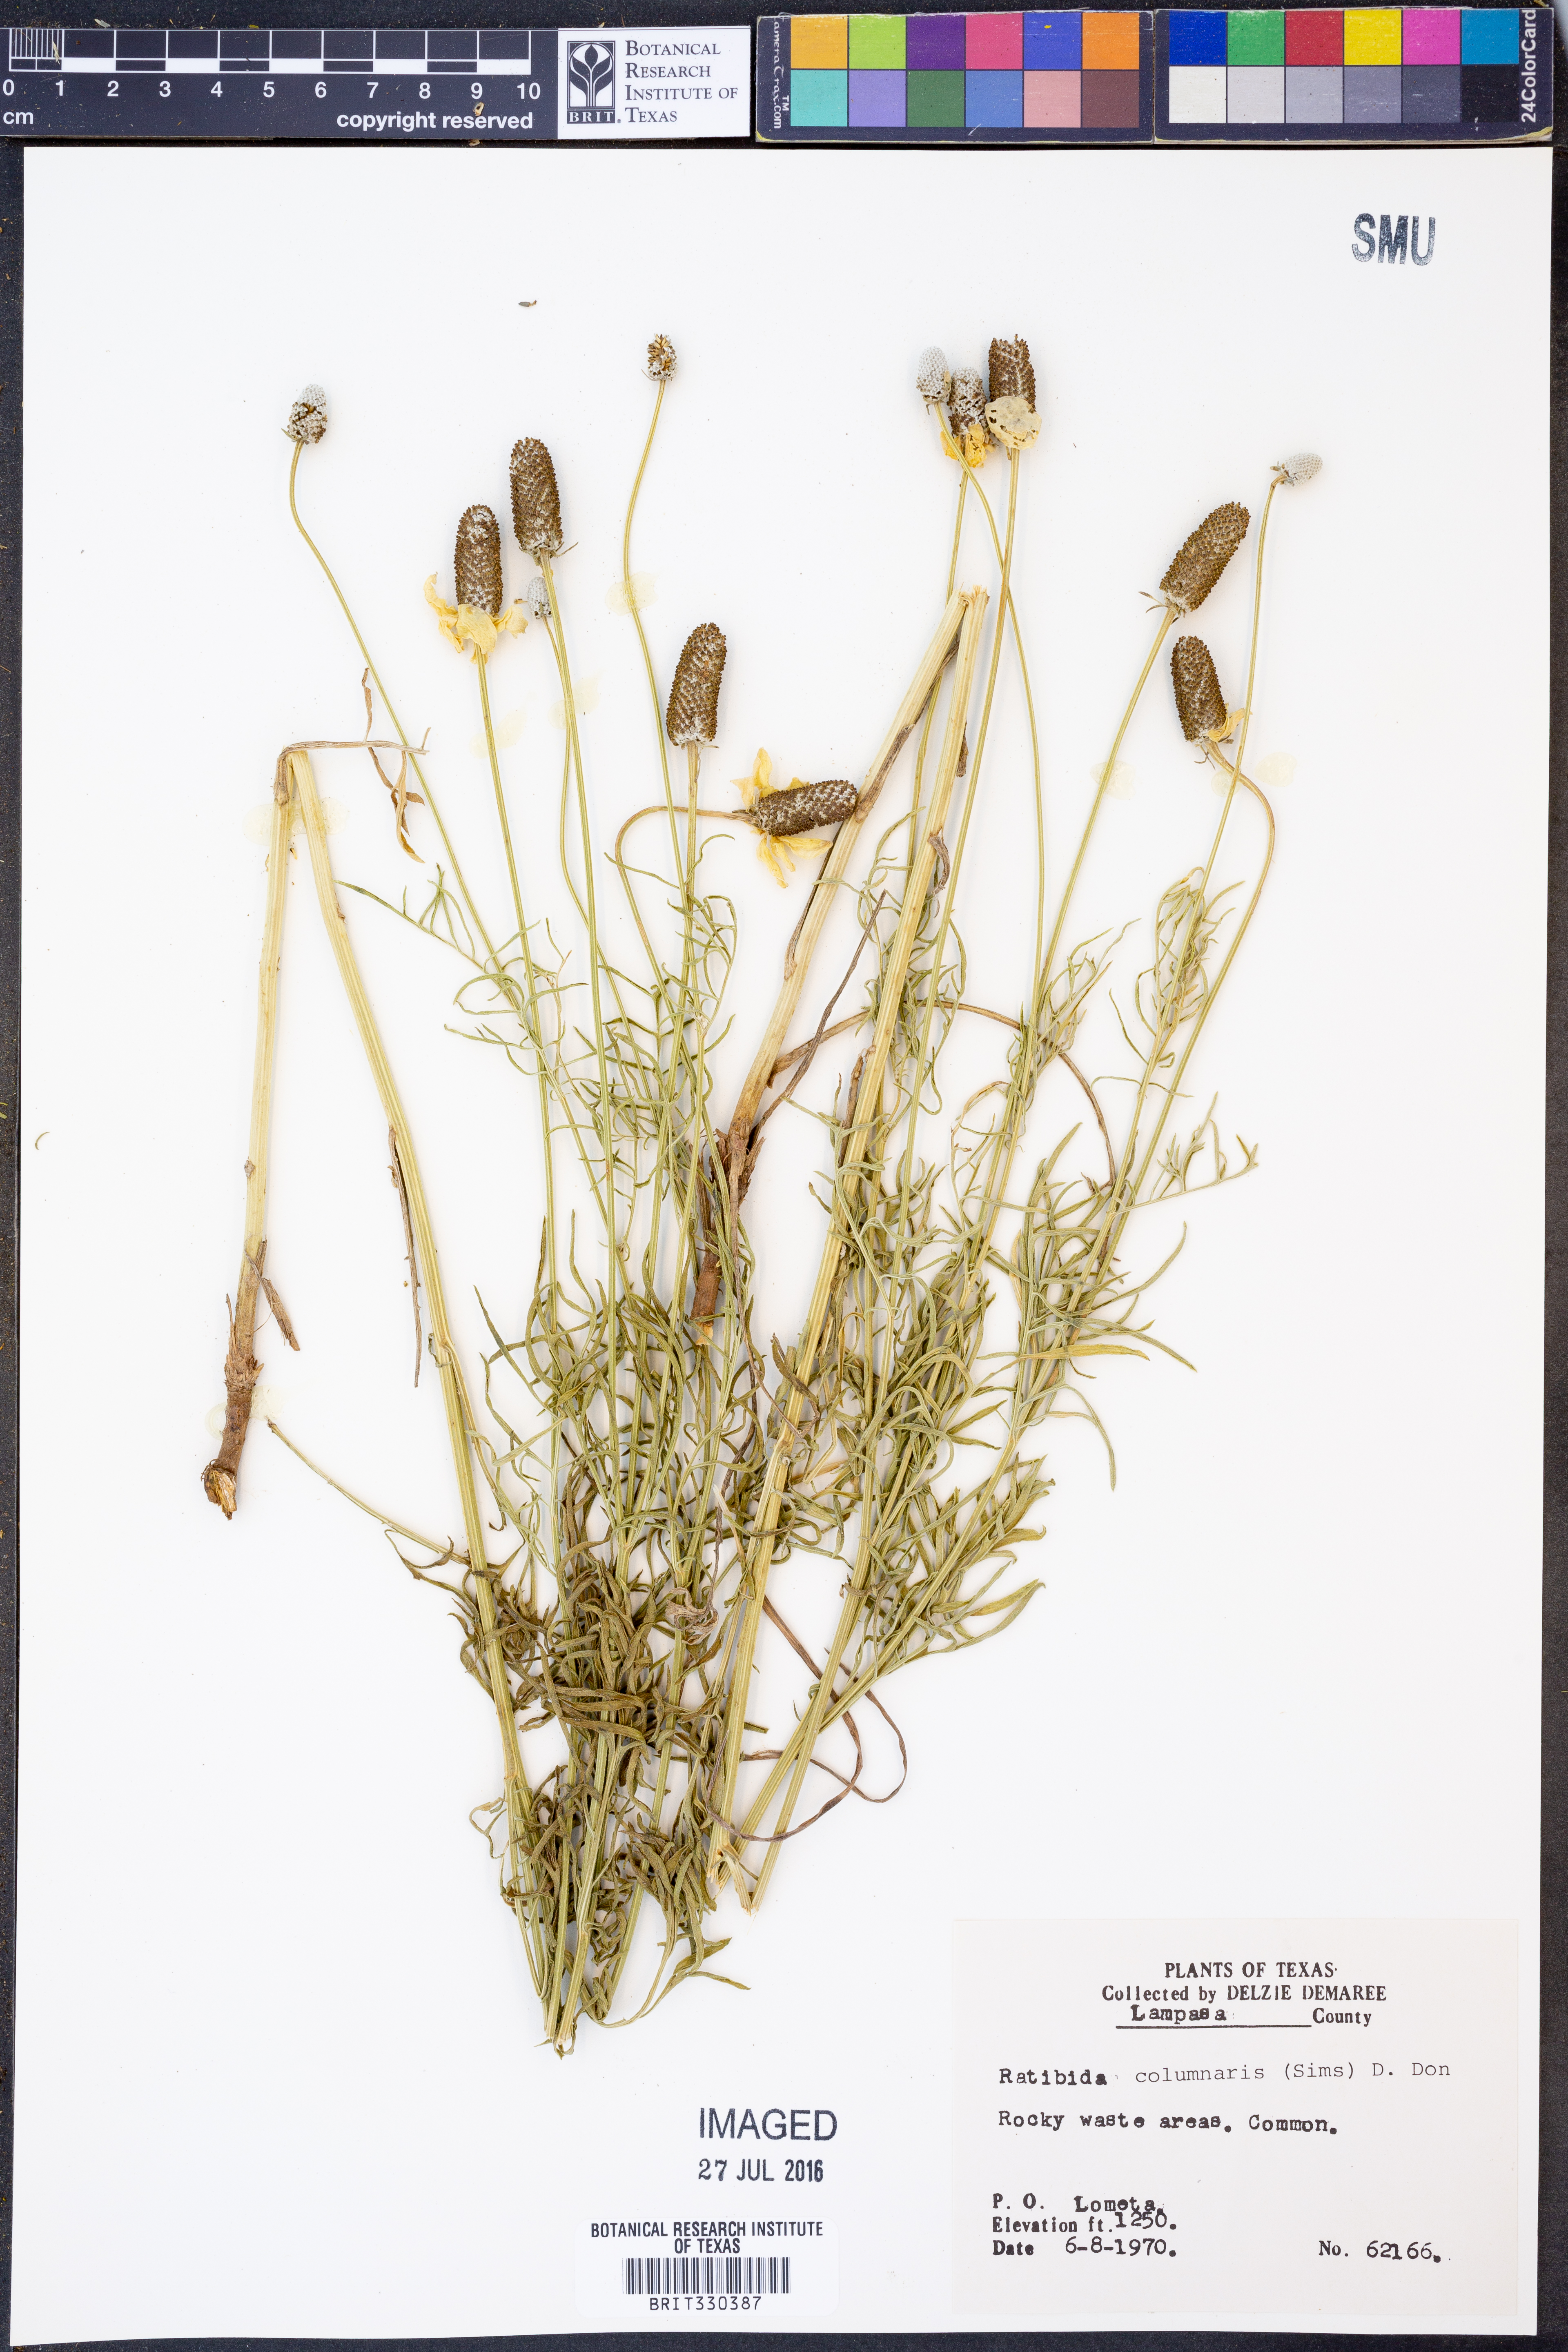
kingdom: Plantae
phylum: Tracheophyta
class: Magnoliopsida
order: Asterales
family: Asteraceae
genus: Ratibida
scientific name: Ratibida columnifera
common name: Prairie coneflower
